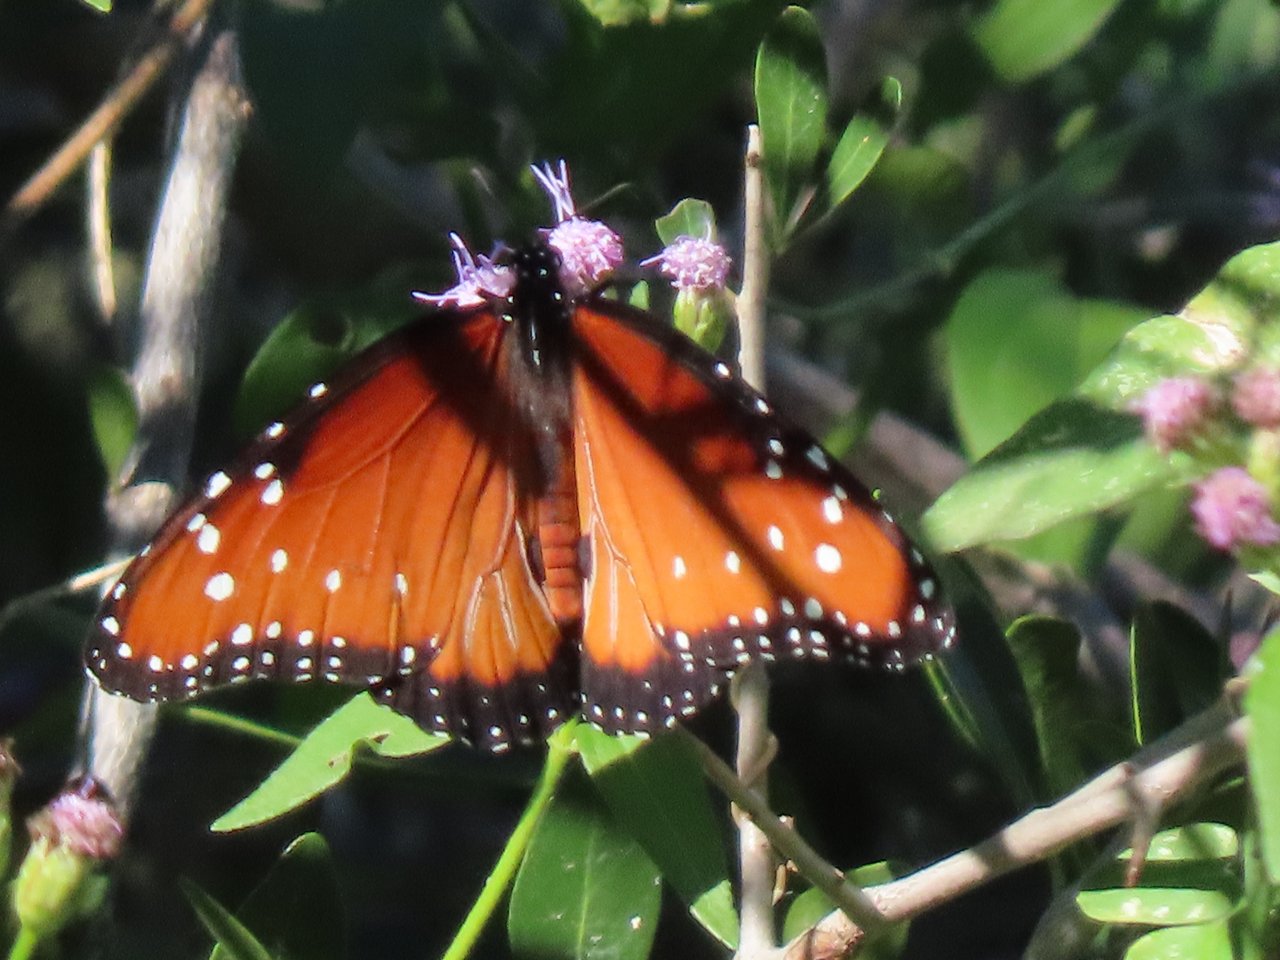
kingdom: Animalia
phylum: Arthropoda
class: Insecta
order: Lepidoptera
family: Nymphalidae
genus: Danaus
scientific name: Danaus gilippus
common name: Queen
